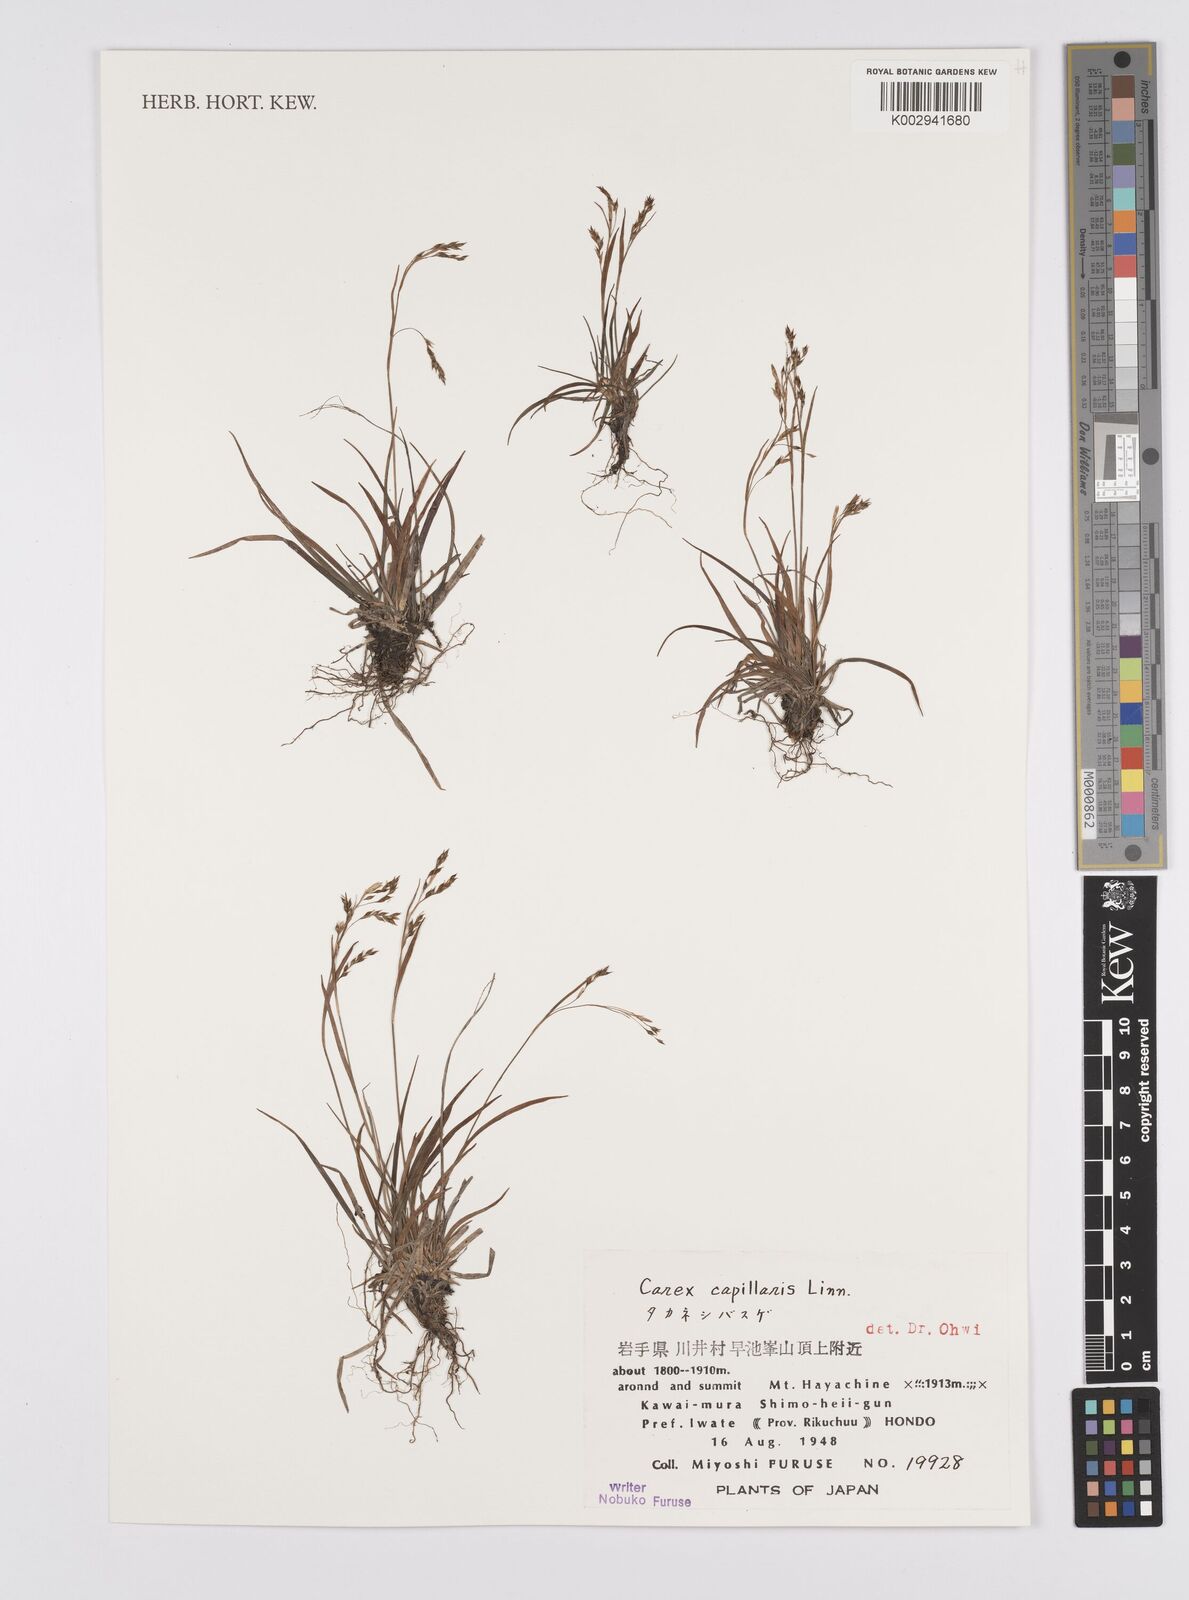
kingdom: Plantae
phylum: Tracheophyta
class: Liliopsida
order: Poales
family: Cyperaceae
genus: Carex
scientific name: Carex capillaris
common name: Hair sedge
